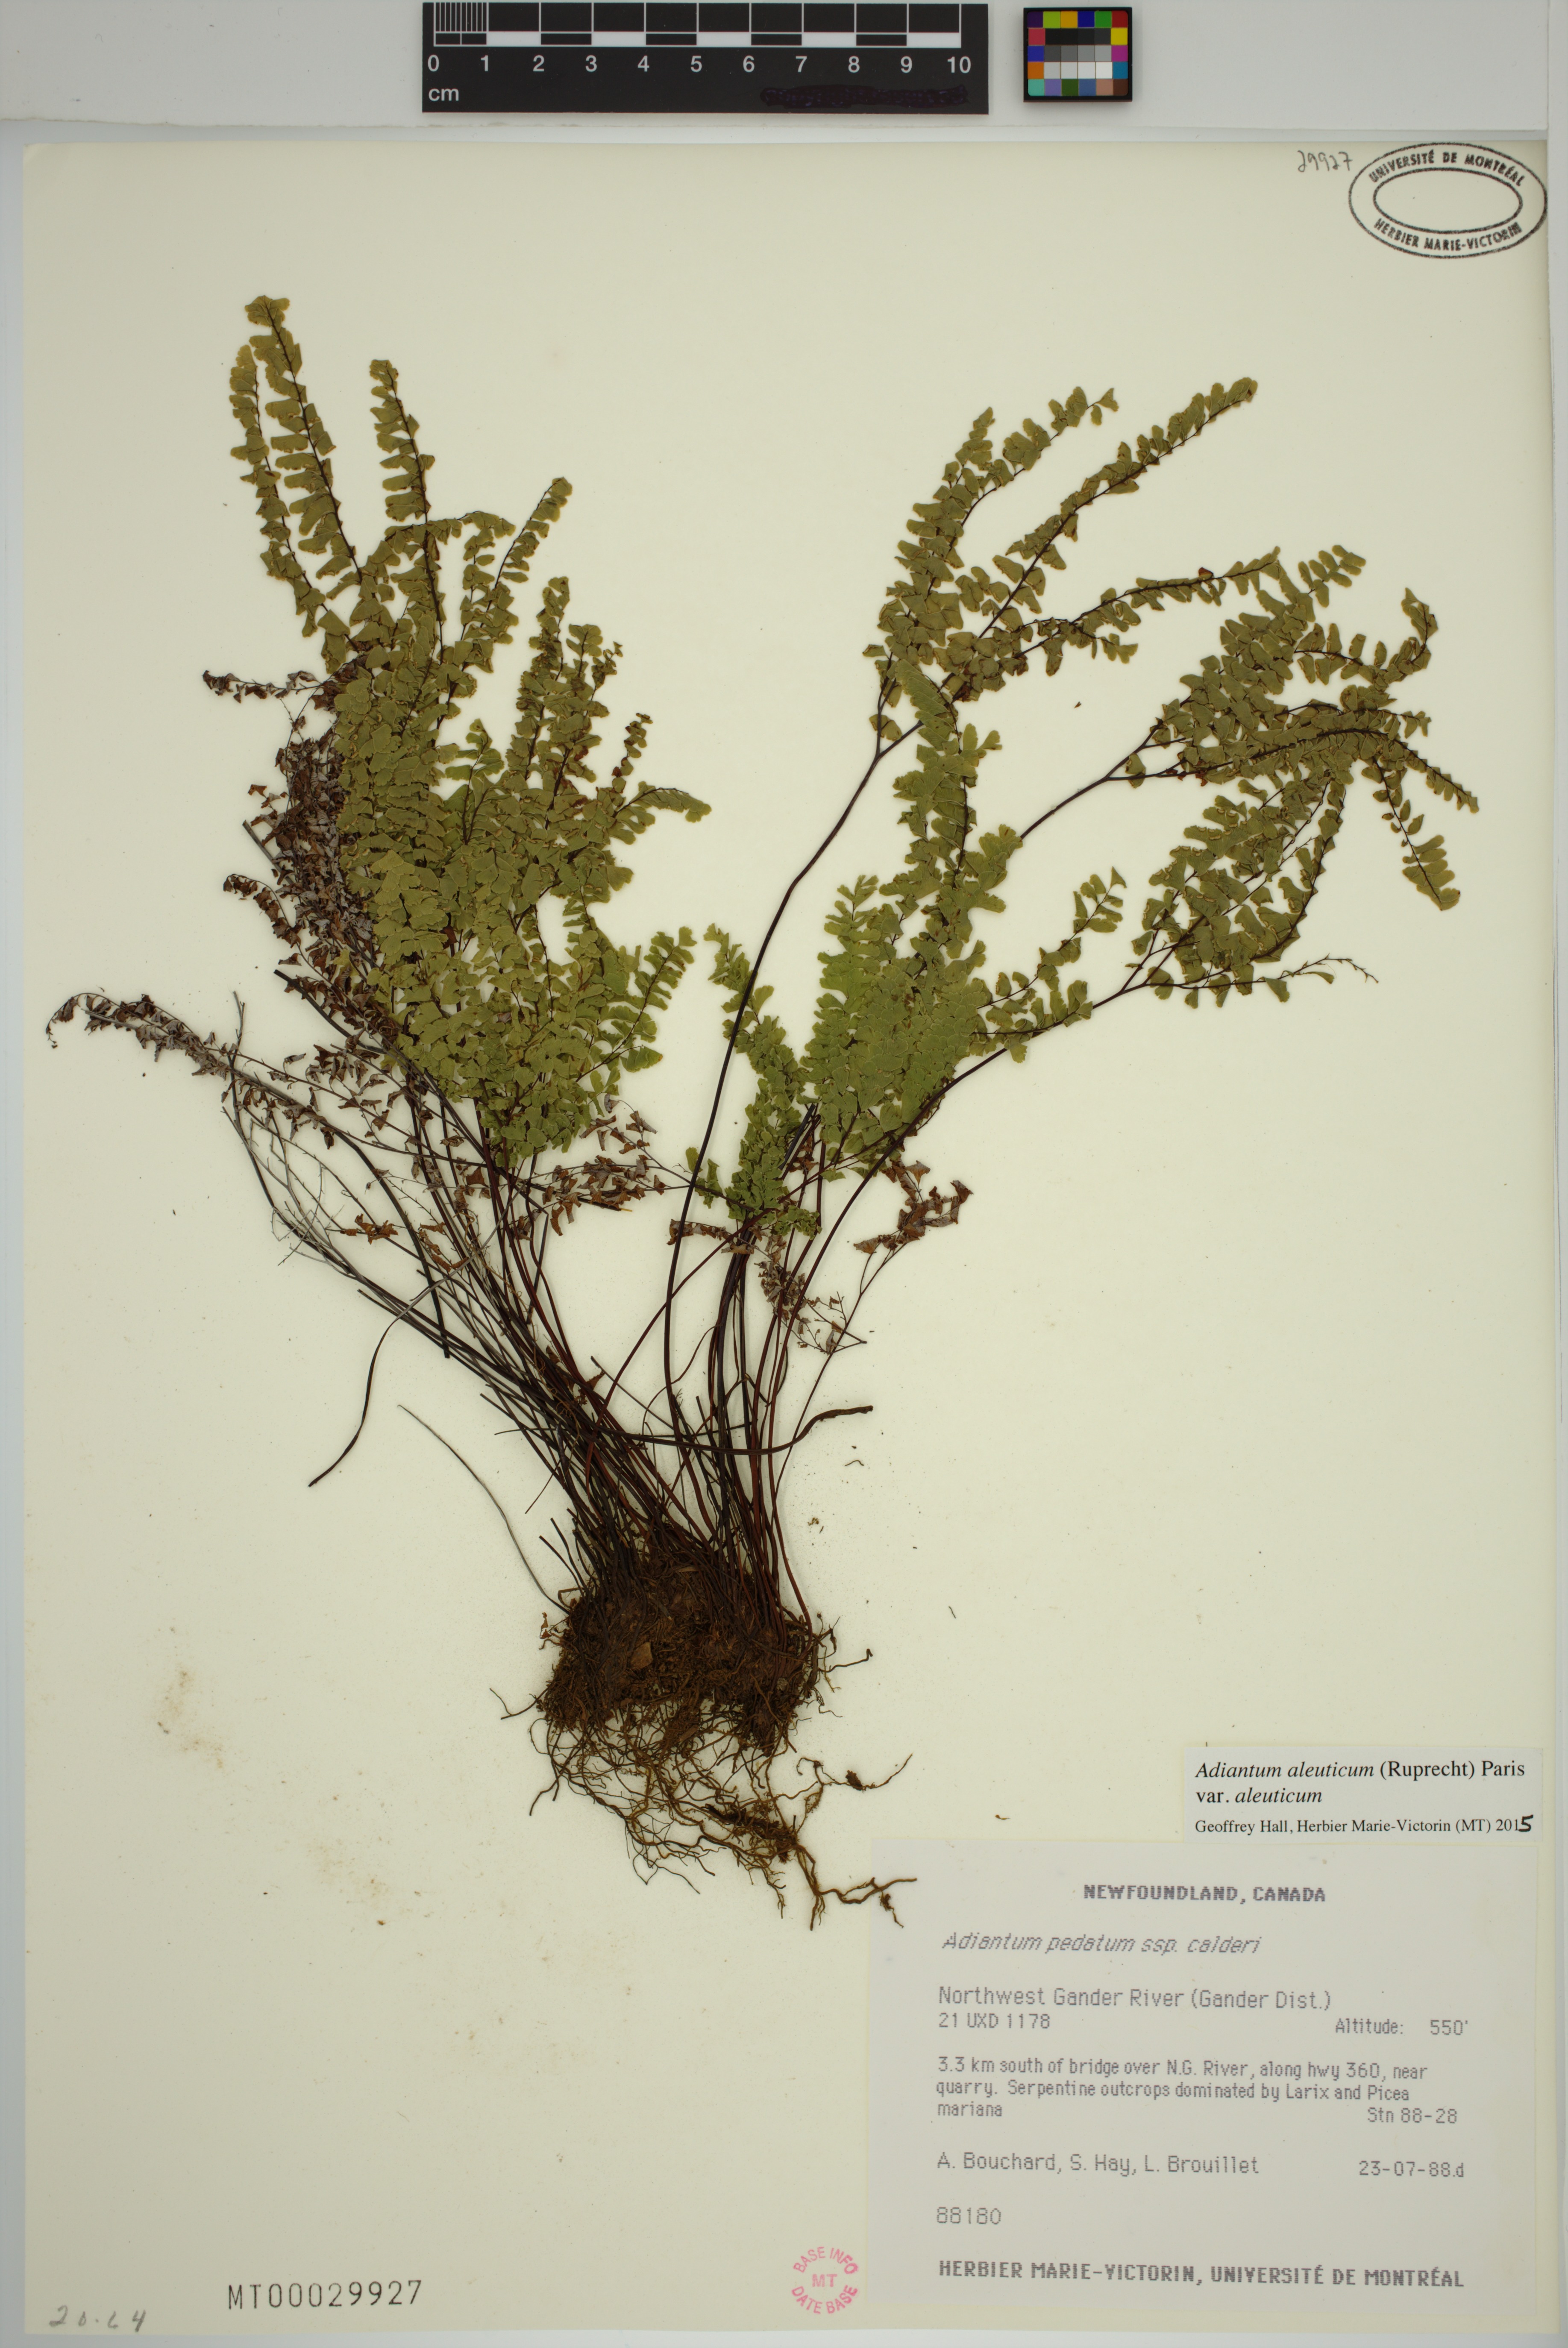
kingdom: Plantae
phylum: Tracheophyta
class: Polypodiopsida
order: Polypodiales
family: Pteridaceae
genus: Adiantum
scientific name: Adiantum aleuticum
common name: Aleutian maidenhair fern
